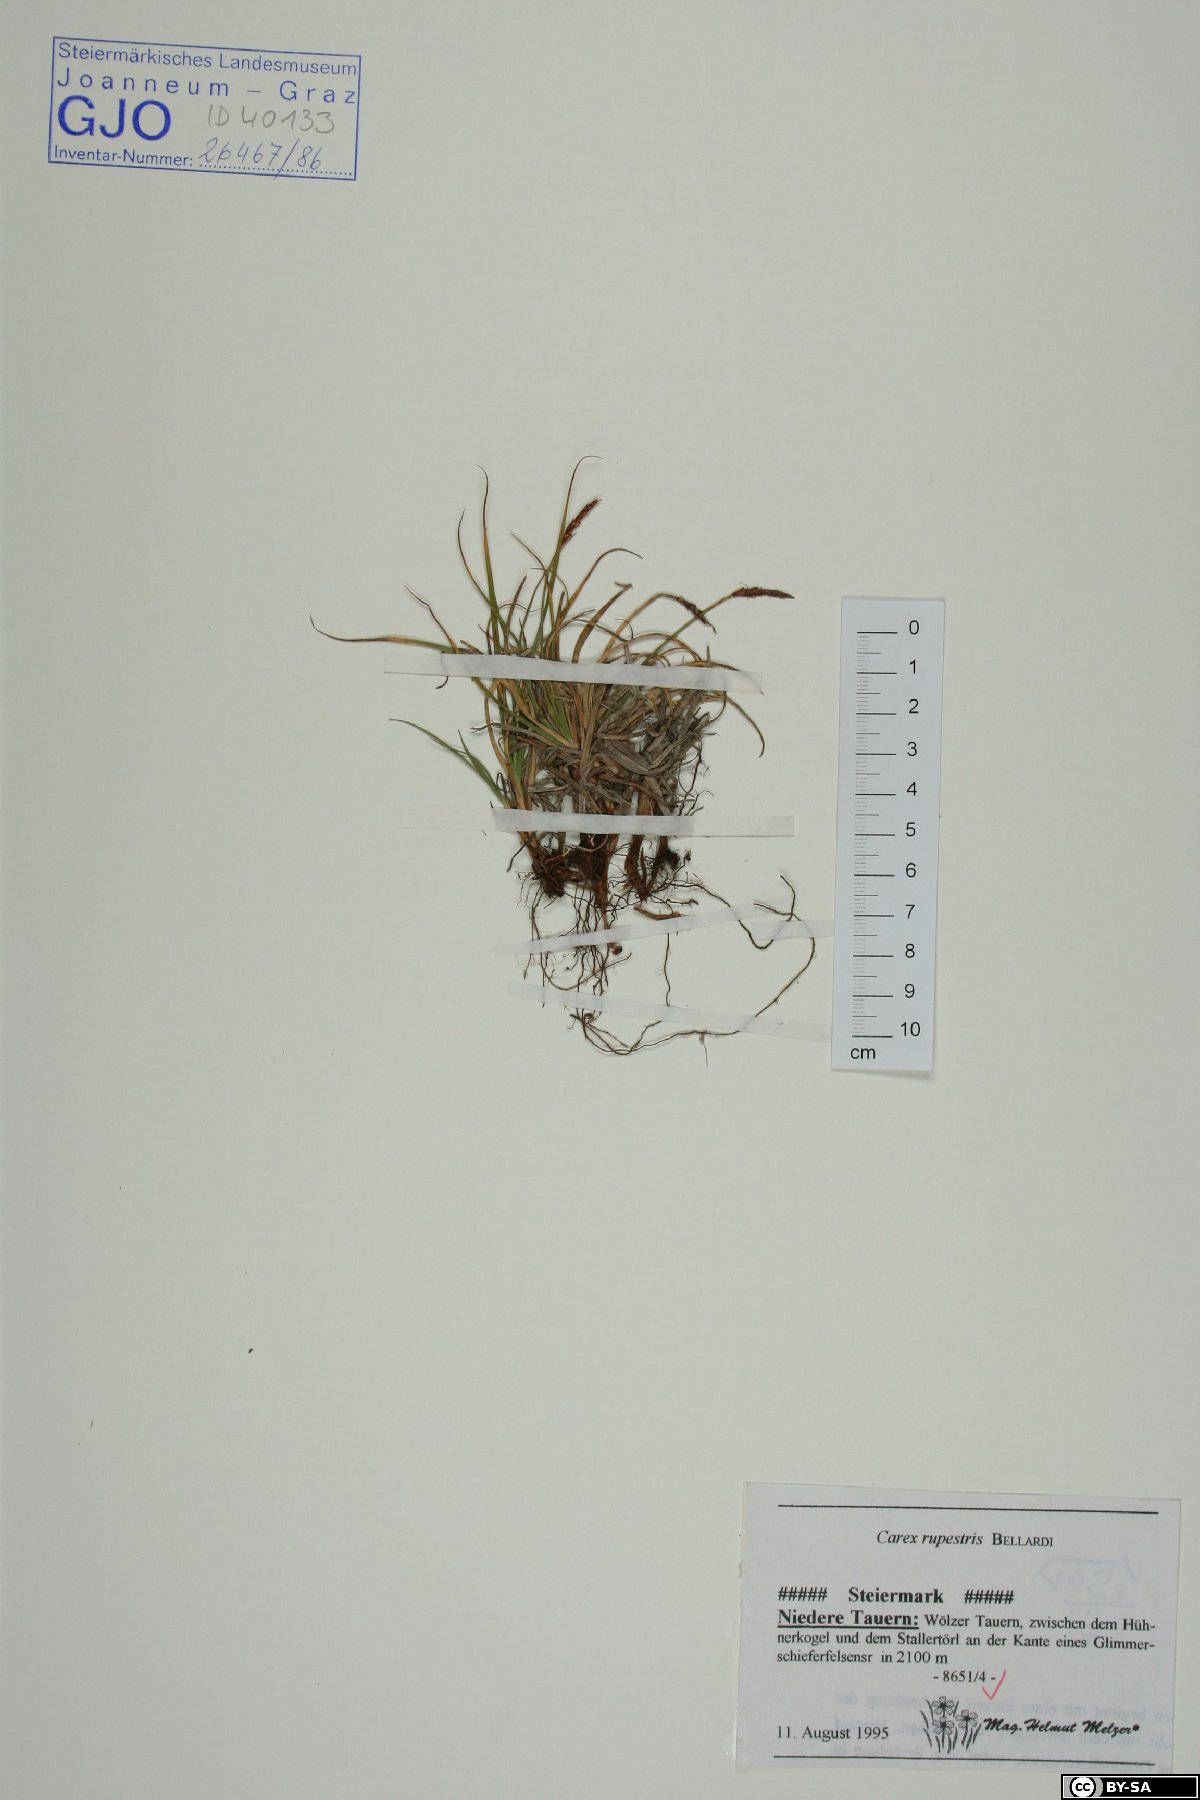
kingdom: Plantae
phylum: Tracheophyta
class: Liliopsida
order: Poales
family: Cyperaceae
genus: Carex
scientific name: Carex rupestris
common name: Rock sedge
